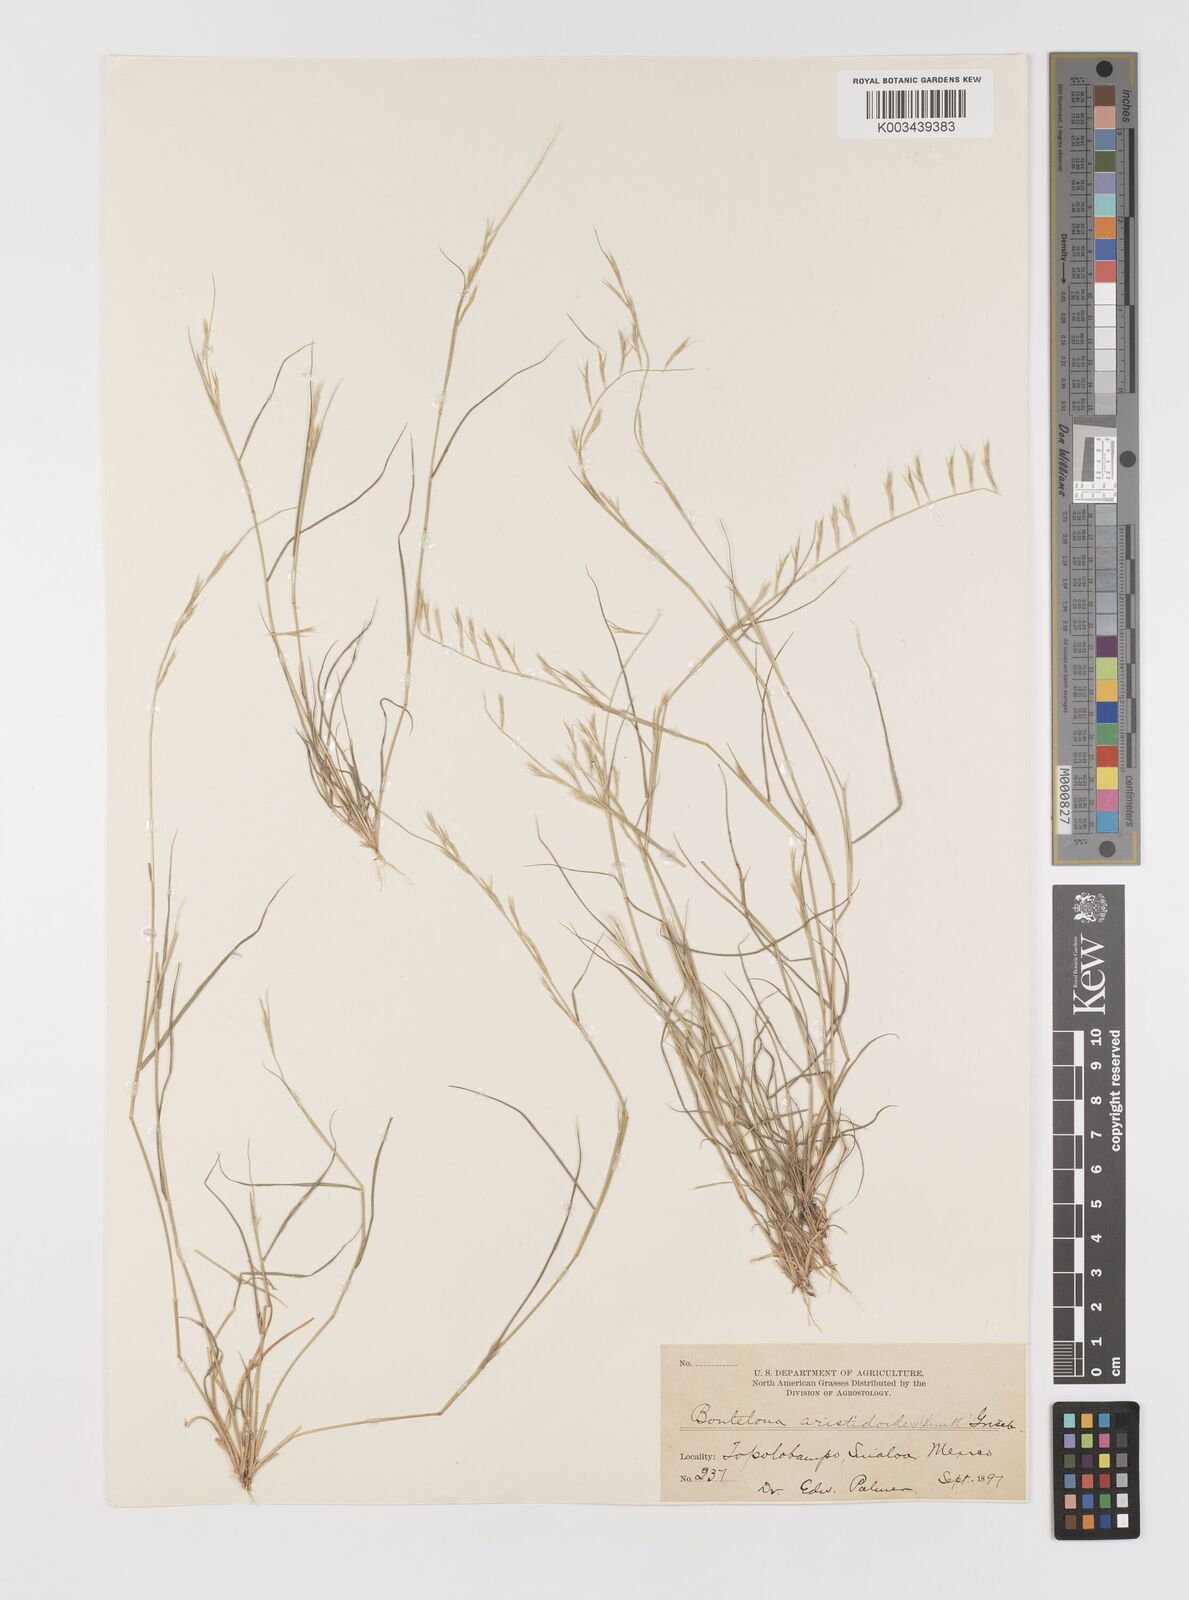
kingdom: Plantae
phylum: Tracheophyta
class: Liliopsida
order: Poales
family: Poaceae
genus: Bouteloua
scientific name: Bouteloua aristidoides
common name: Needle grama
